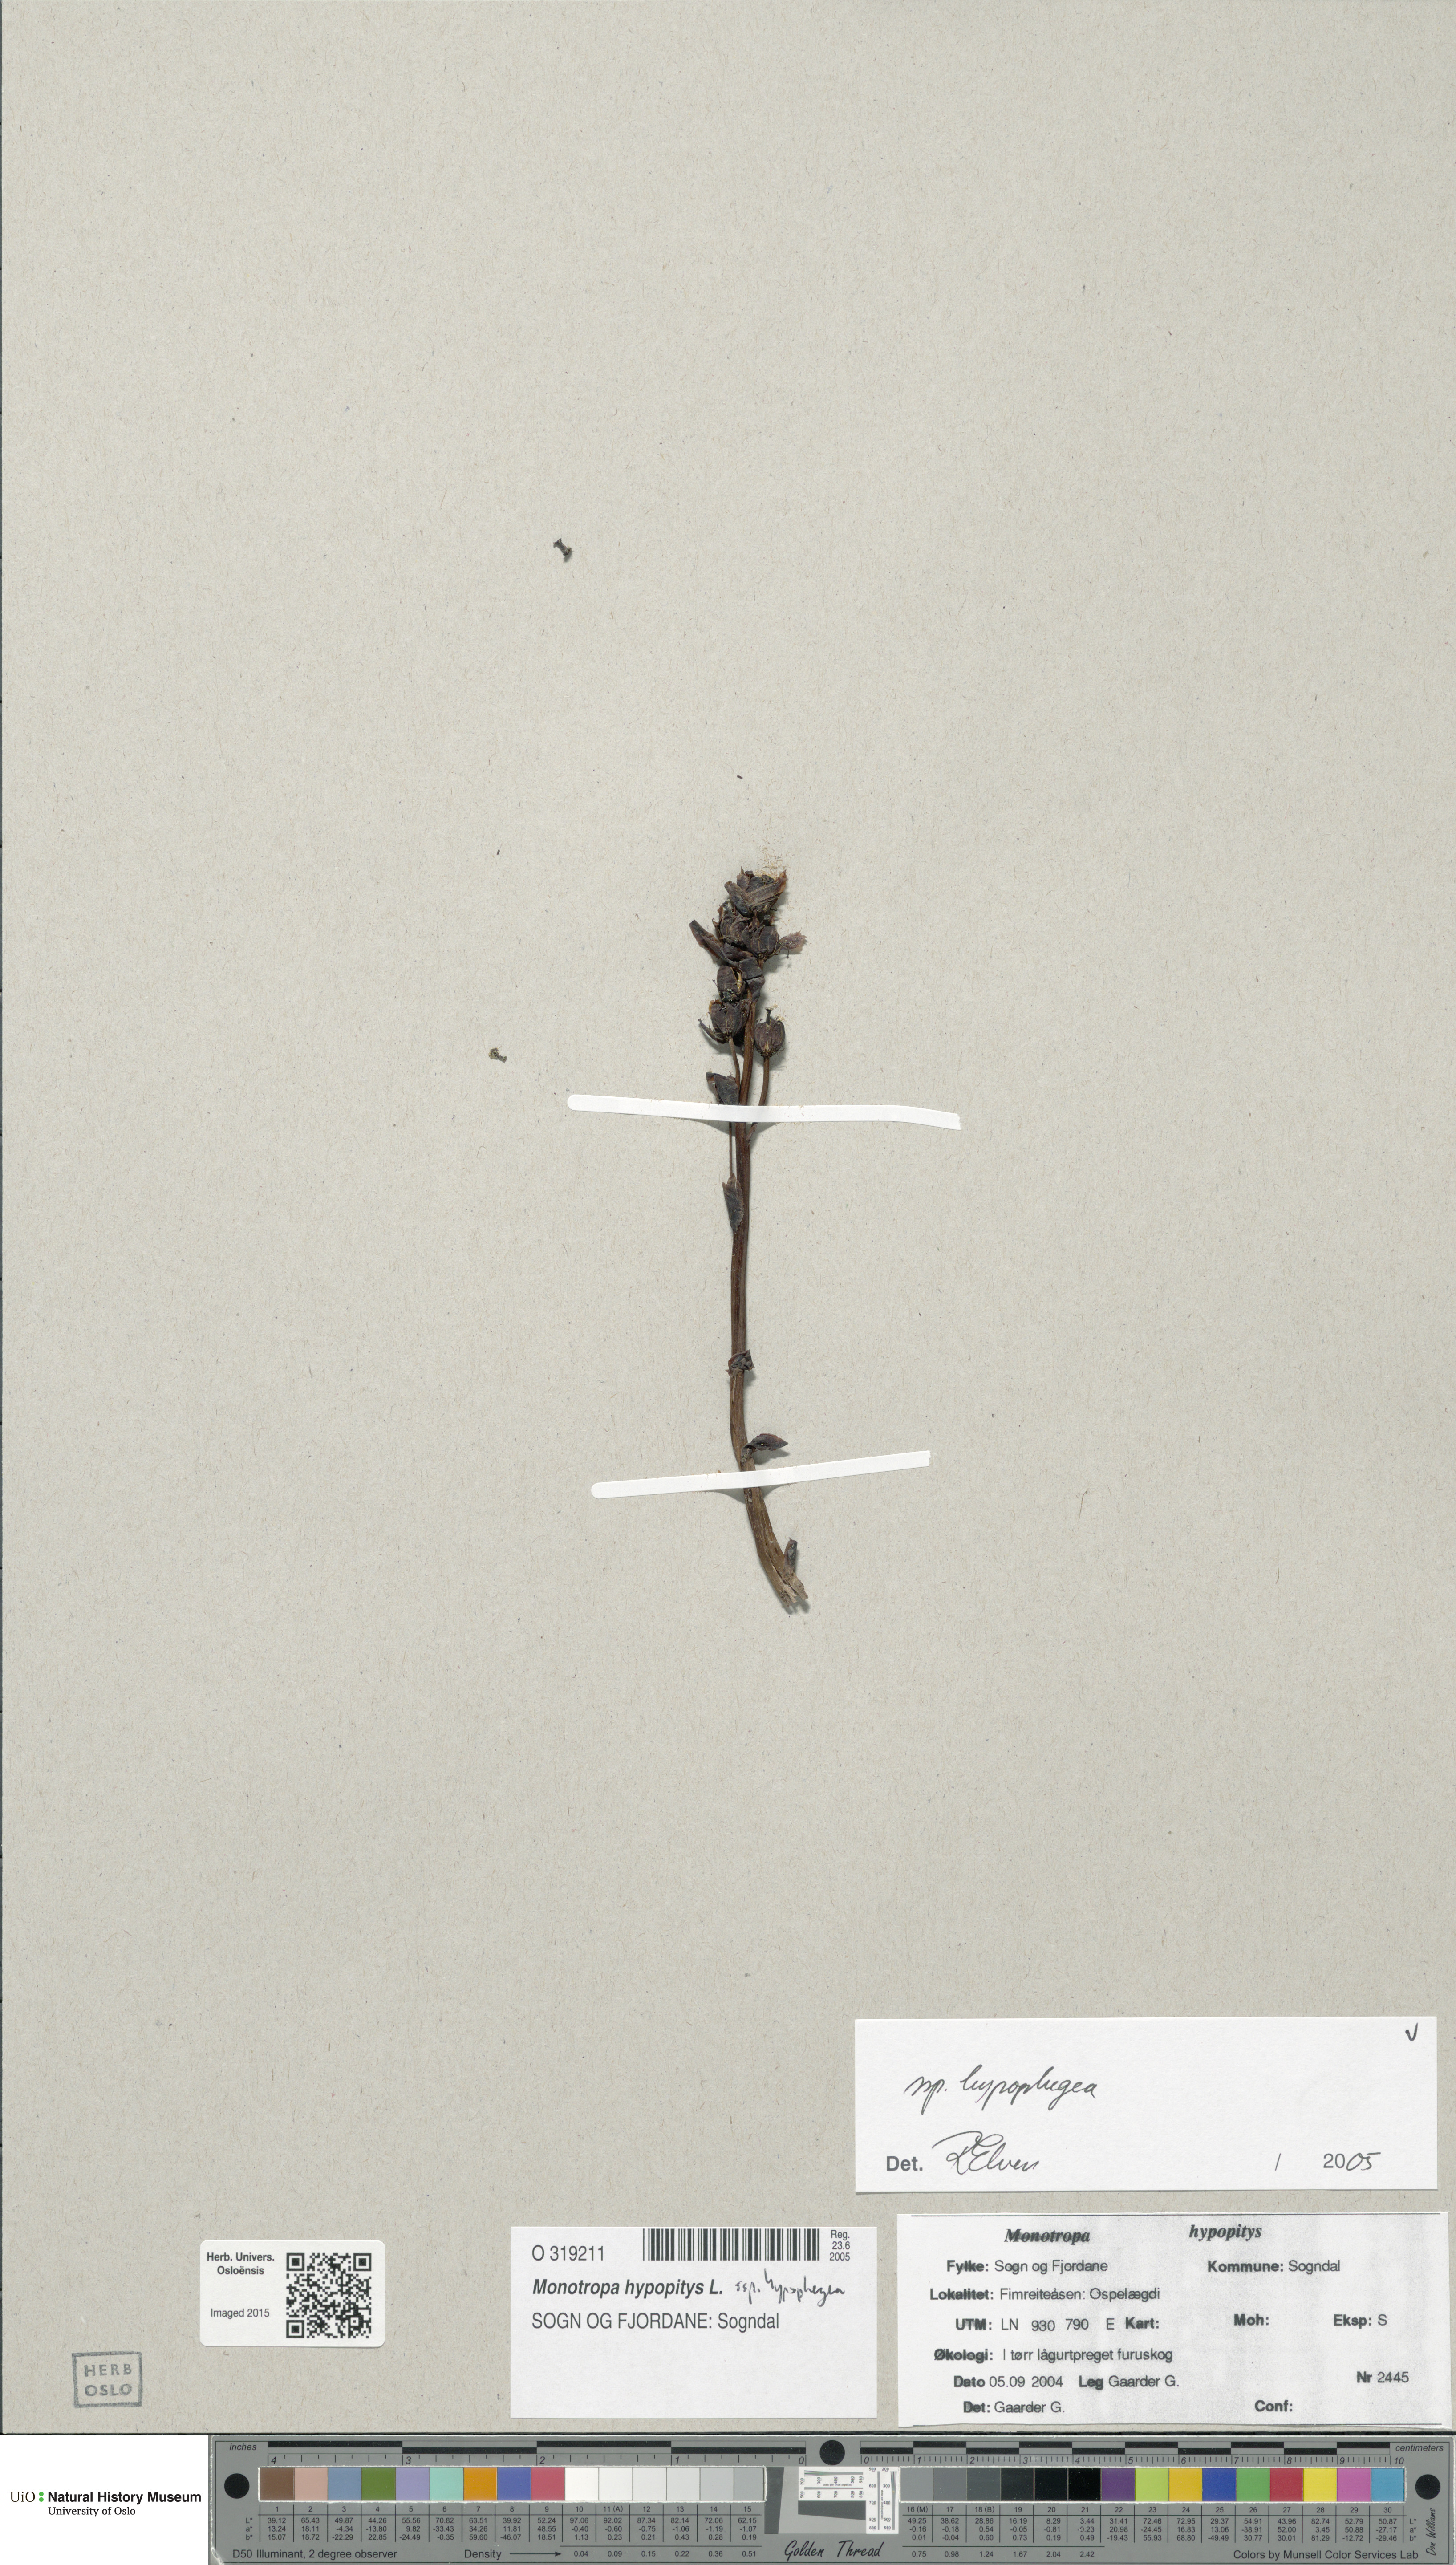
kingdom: Plantae
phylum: Tracheophyta
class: Magnoliopsida
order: Ericales
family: Ericaceae
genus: Hypopitys
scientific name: Hypopitys hypophegea
